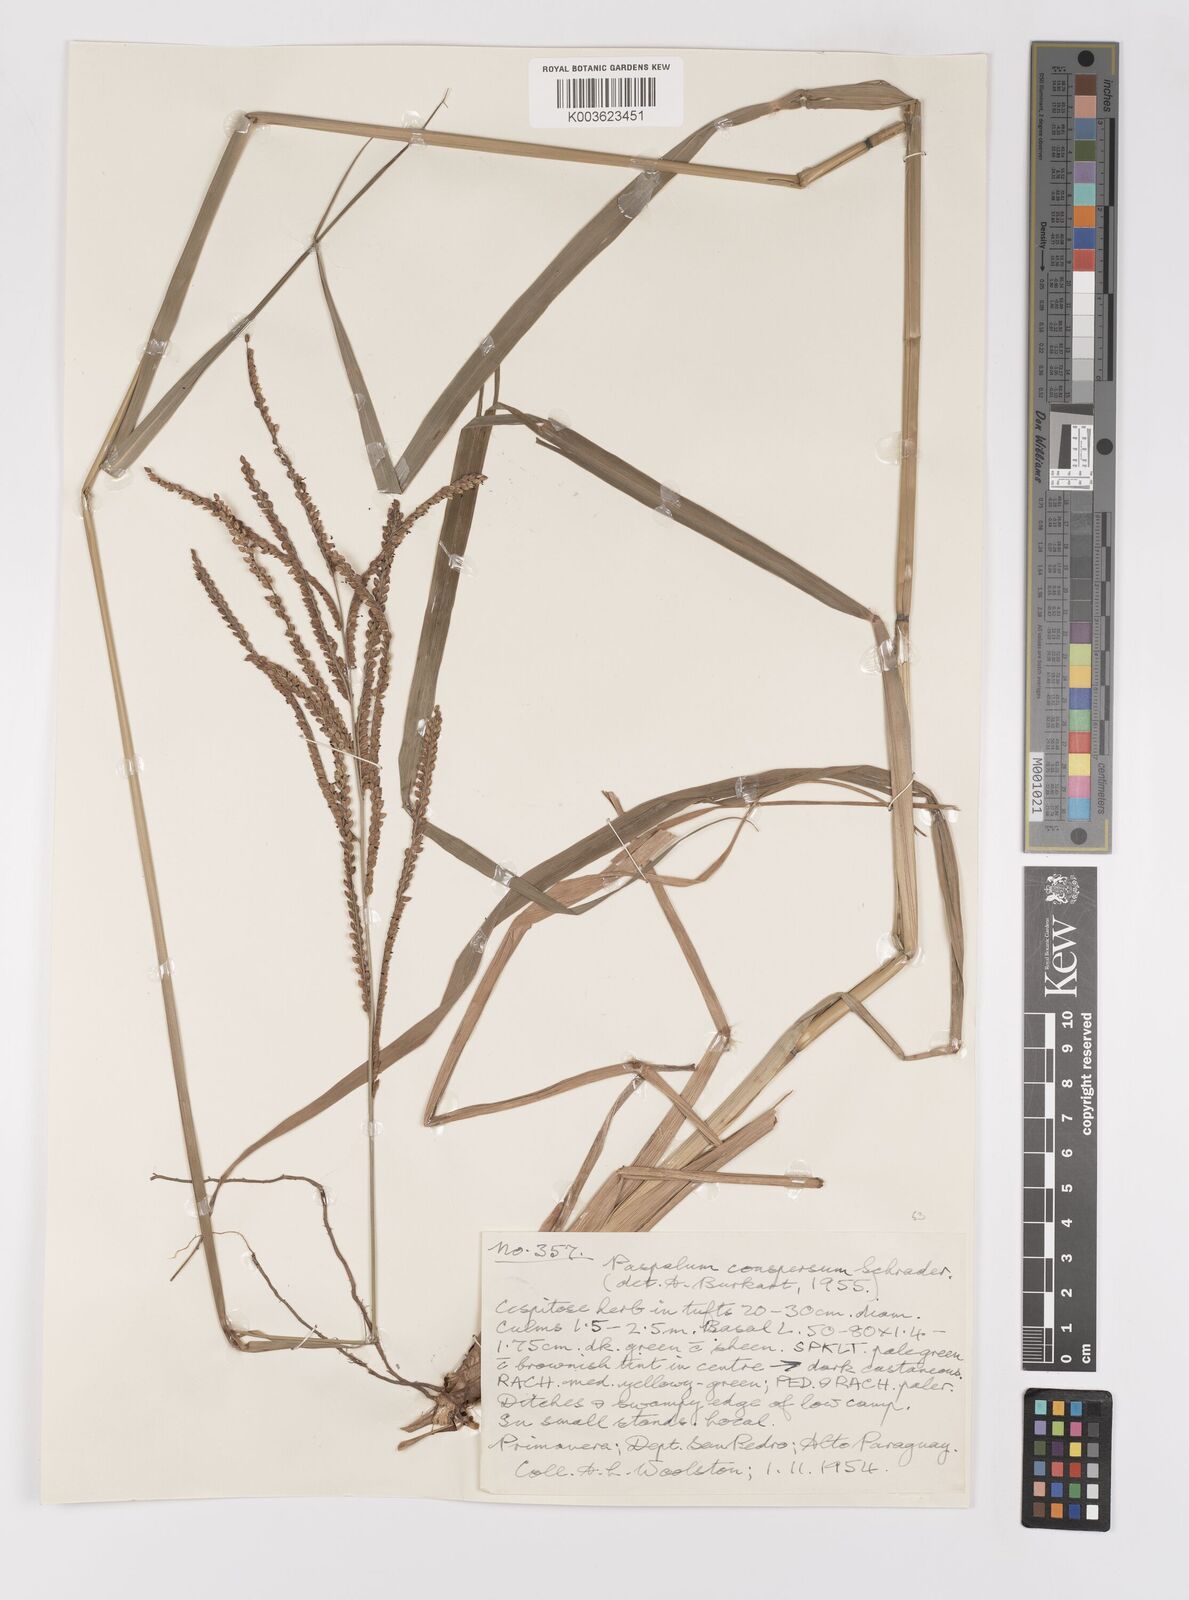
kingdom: Plantae
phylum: Tracheophyta
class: Liliopsida
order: Poales
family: Poaceae
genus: Paspalum
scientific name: Paspalum conspersum
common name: Scattered paspalum
